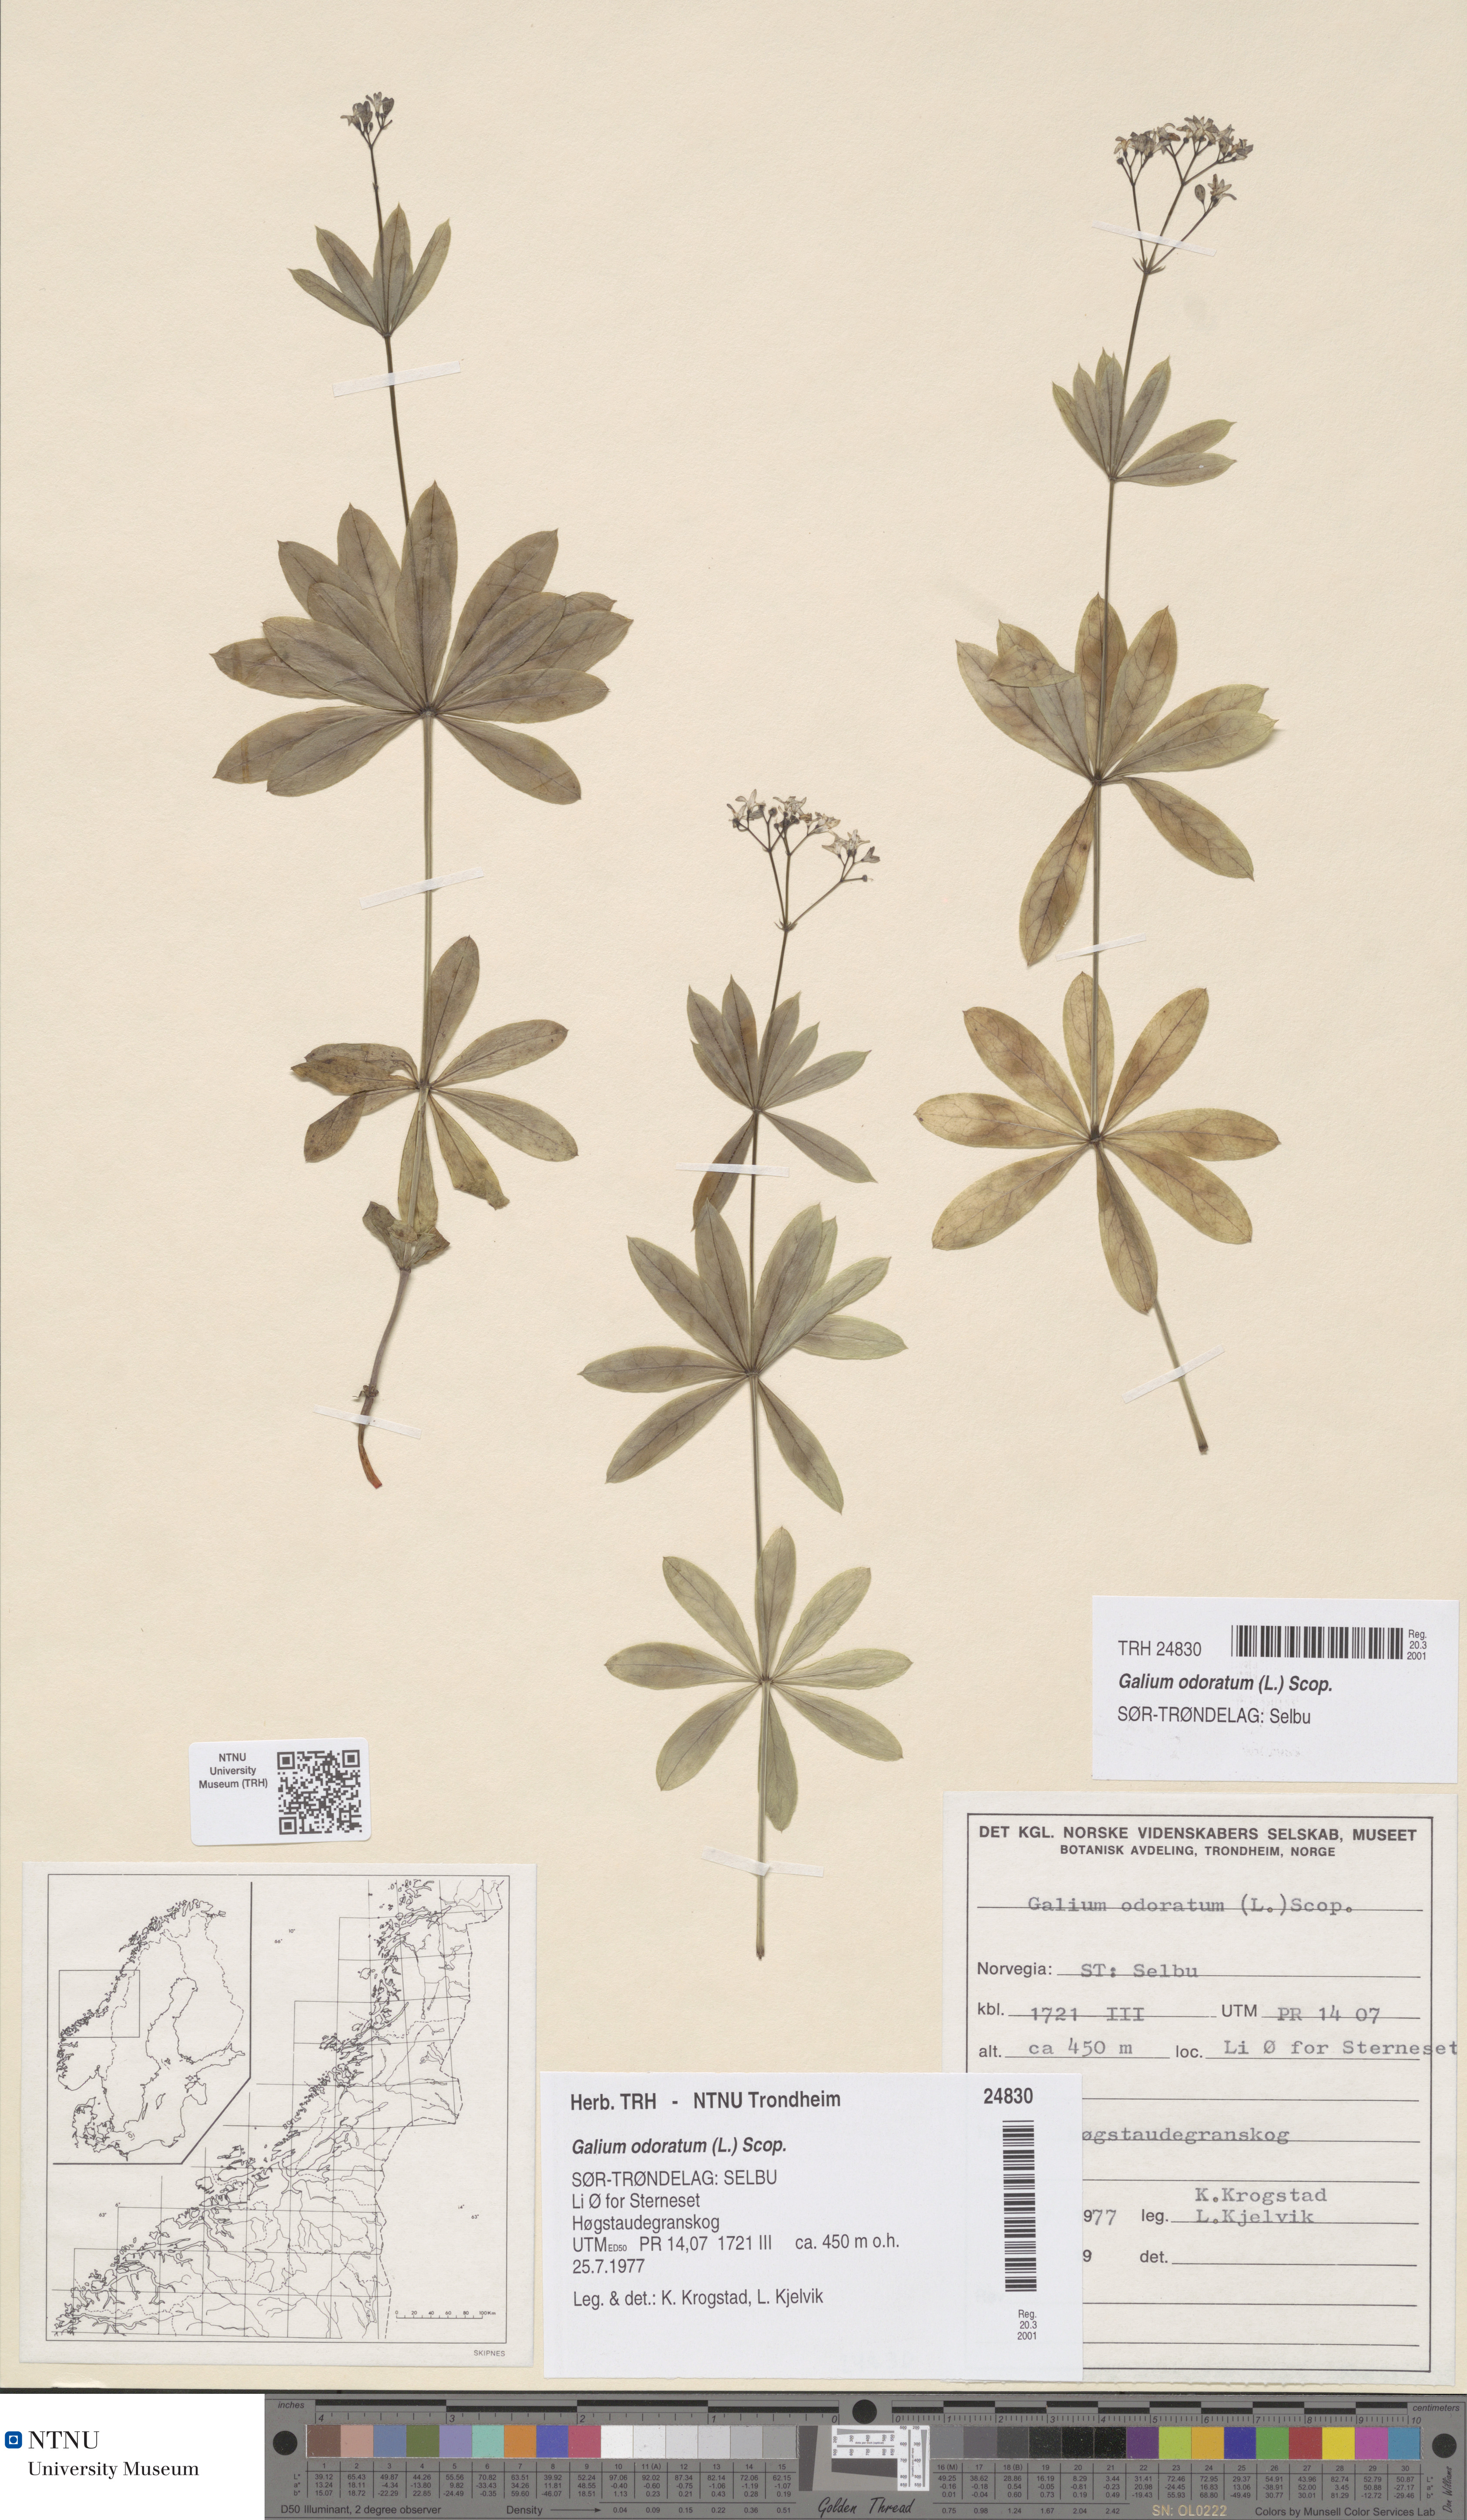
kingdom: Plantae
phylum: Tracheophyta
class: Magnoliopsida
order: Gentianales
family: Rubiaceae
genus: Galium
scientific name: Galium odoratum
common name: Sweet woodruff
